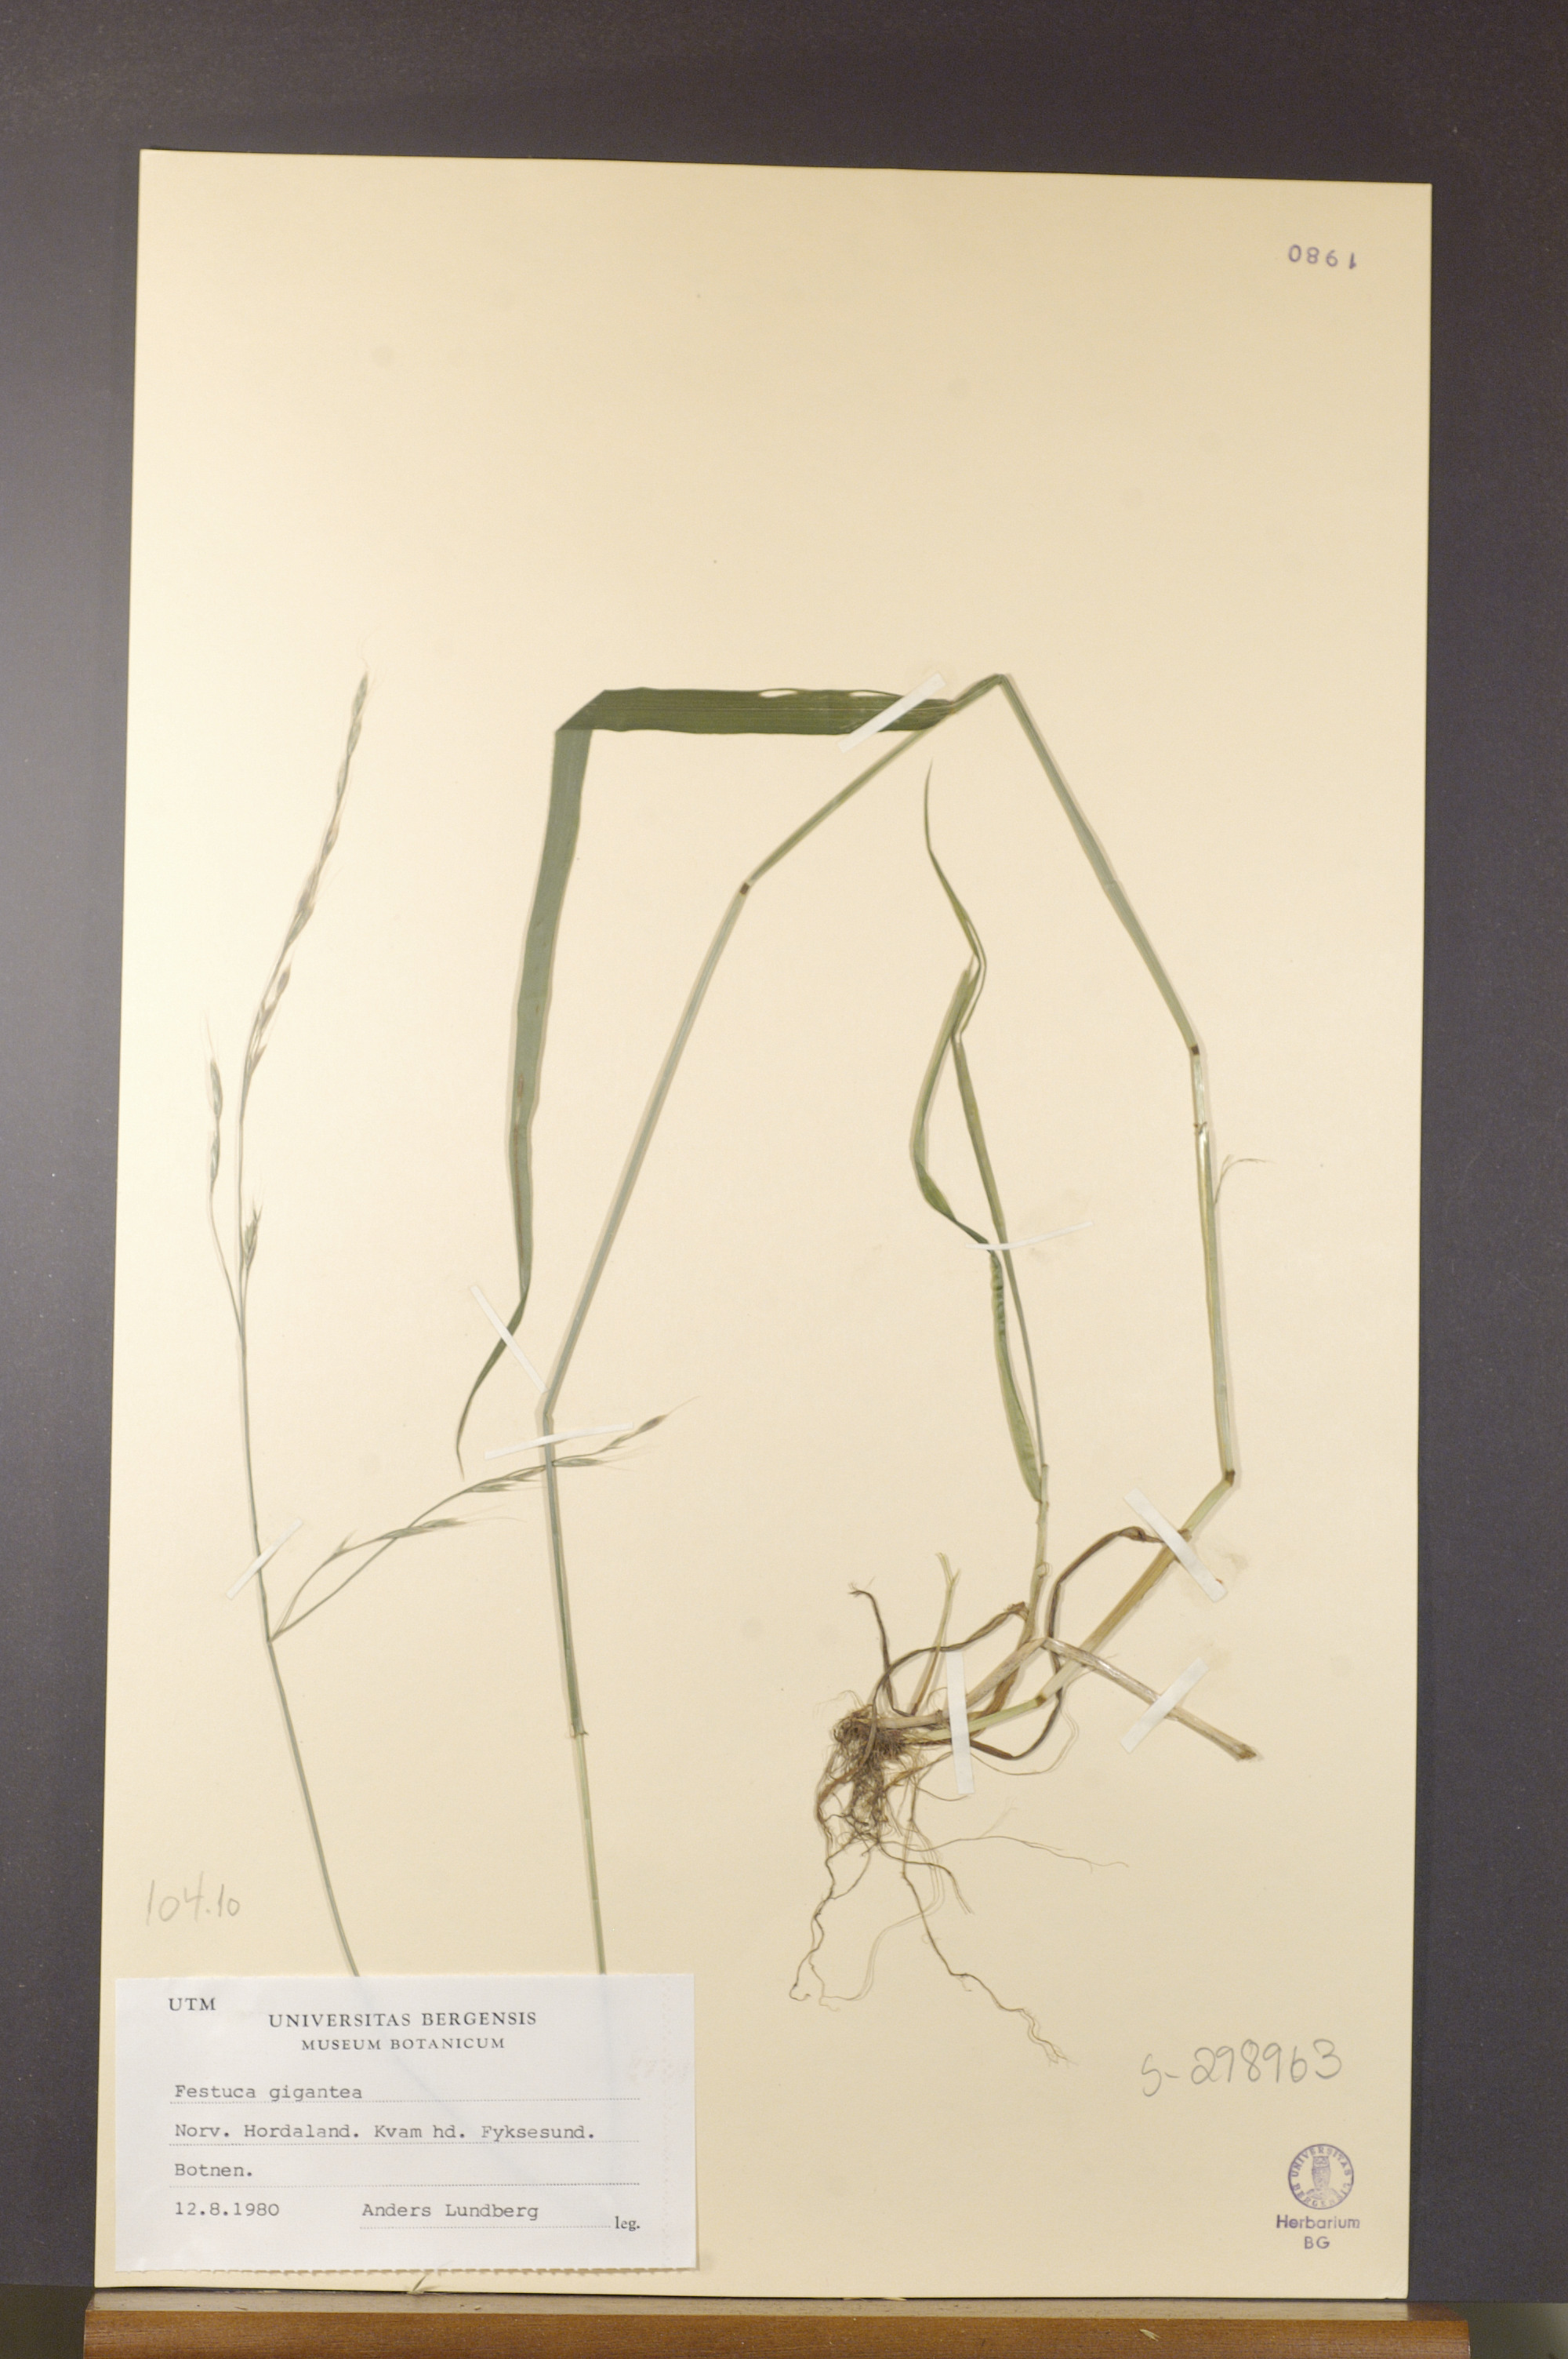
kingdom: Plantae
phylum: Tracheophyta
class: Liliopsida
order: Poales
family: Poaceae
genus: Lolium
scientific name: Lolium giganteum
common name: Giant fescue
